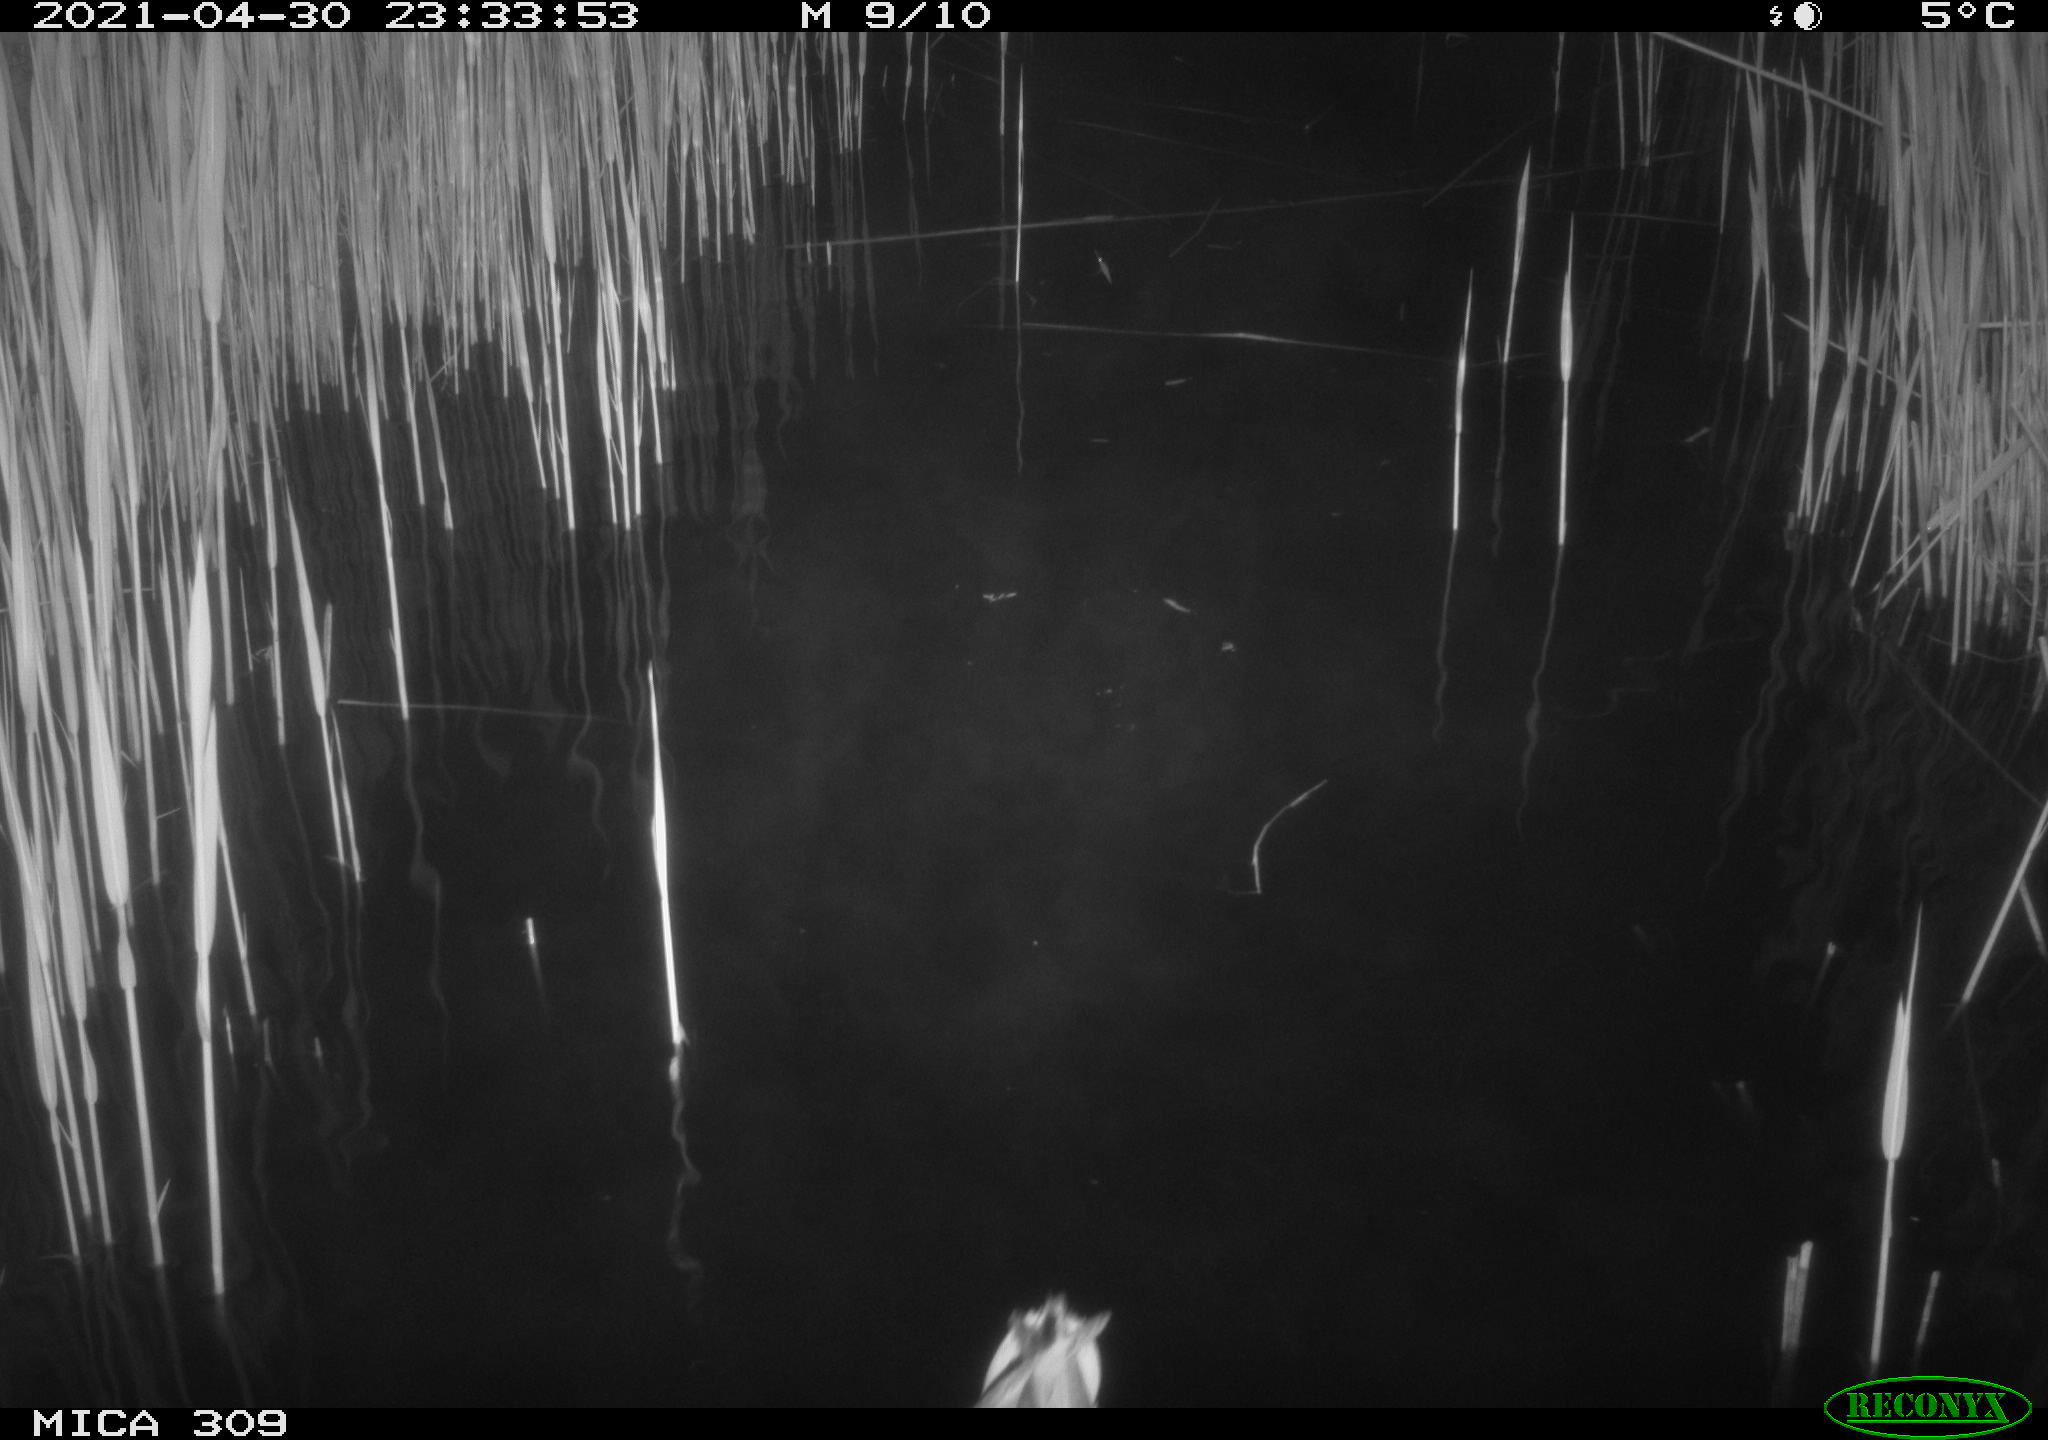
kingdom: Animalia
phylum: Chordata
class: Aves
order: Anseriformes
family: Anatidae
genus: Anas
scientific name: Anas platyrhynchos
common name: Mallard
